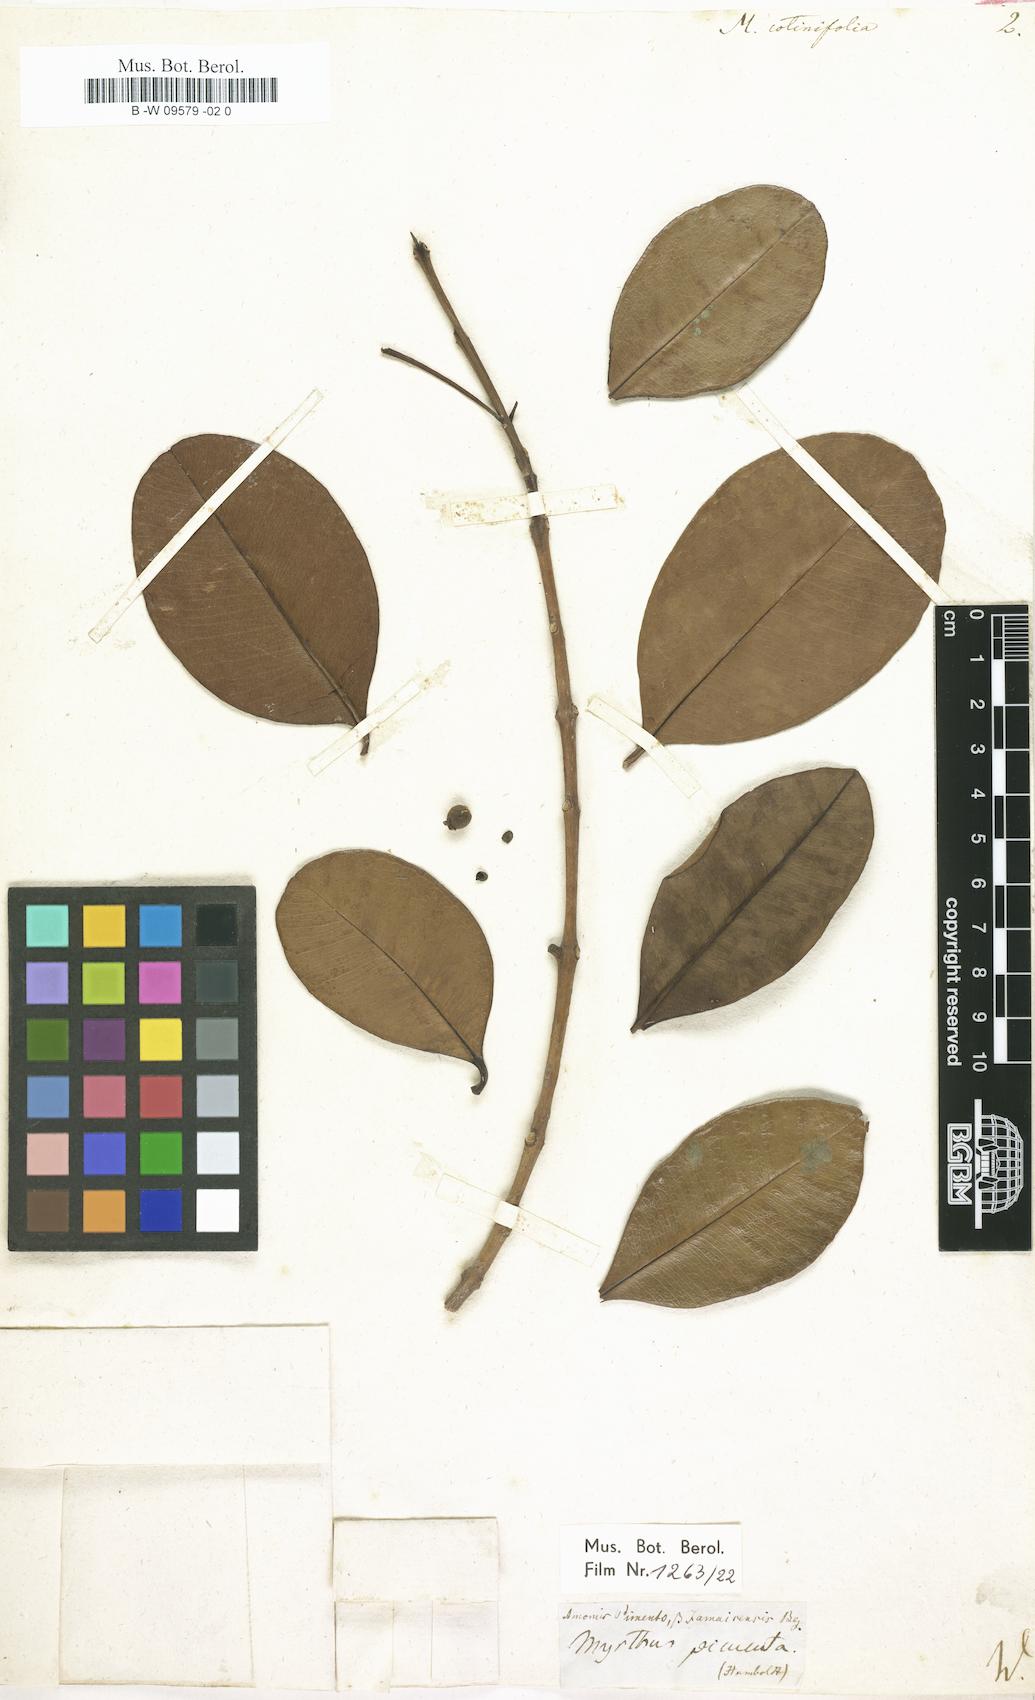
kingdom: Plantae
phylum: Tracheophyta
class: Magnoliopsida
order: Myrtales
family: Myrtaceae
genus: Myrtus
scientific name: Myrtus cotinifolia
